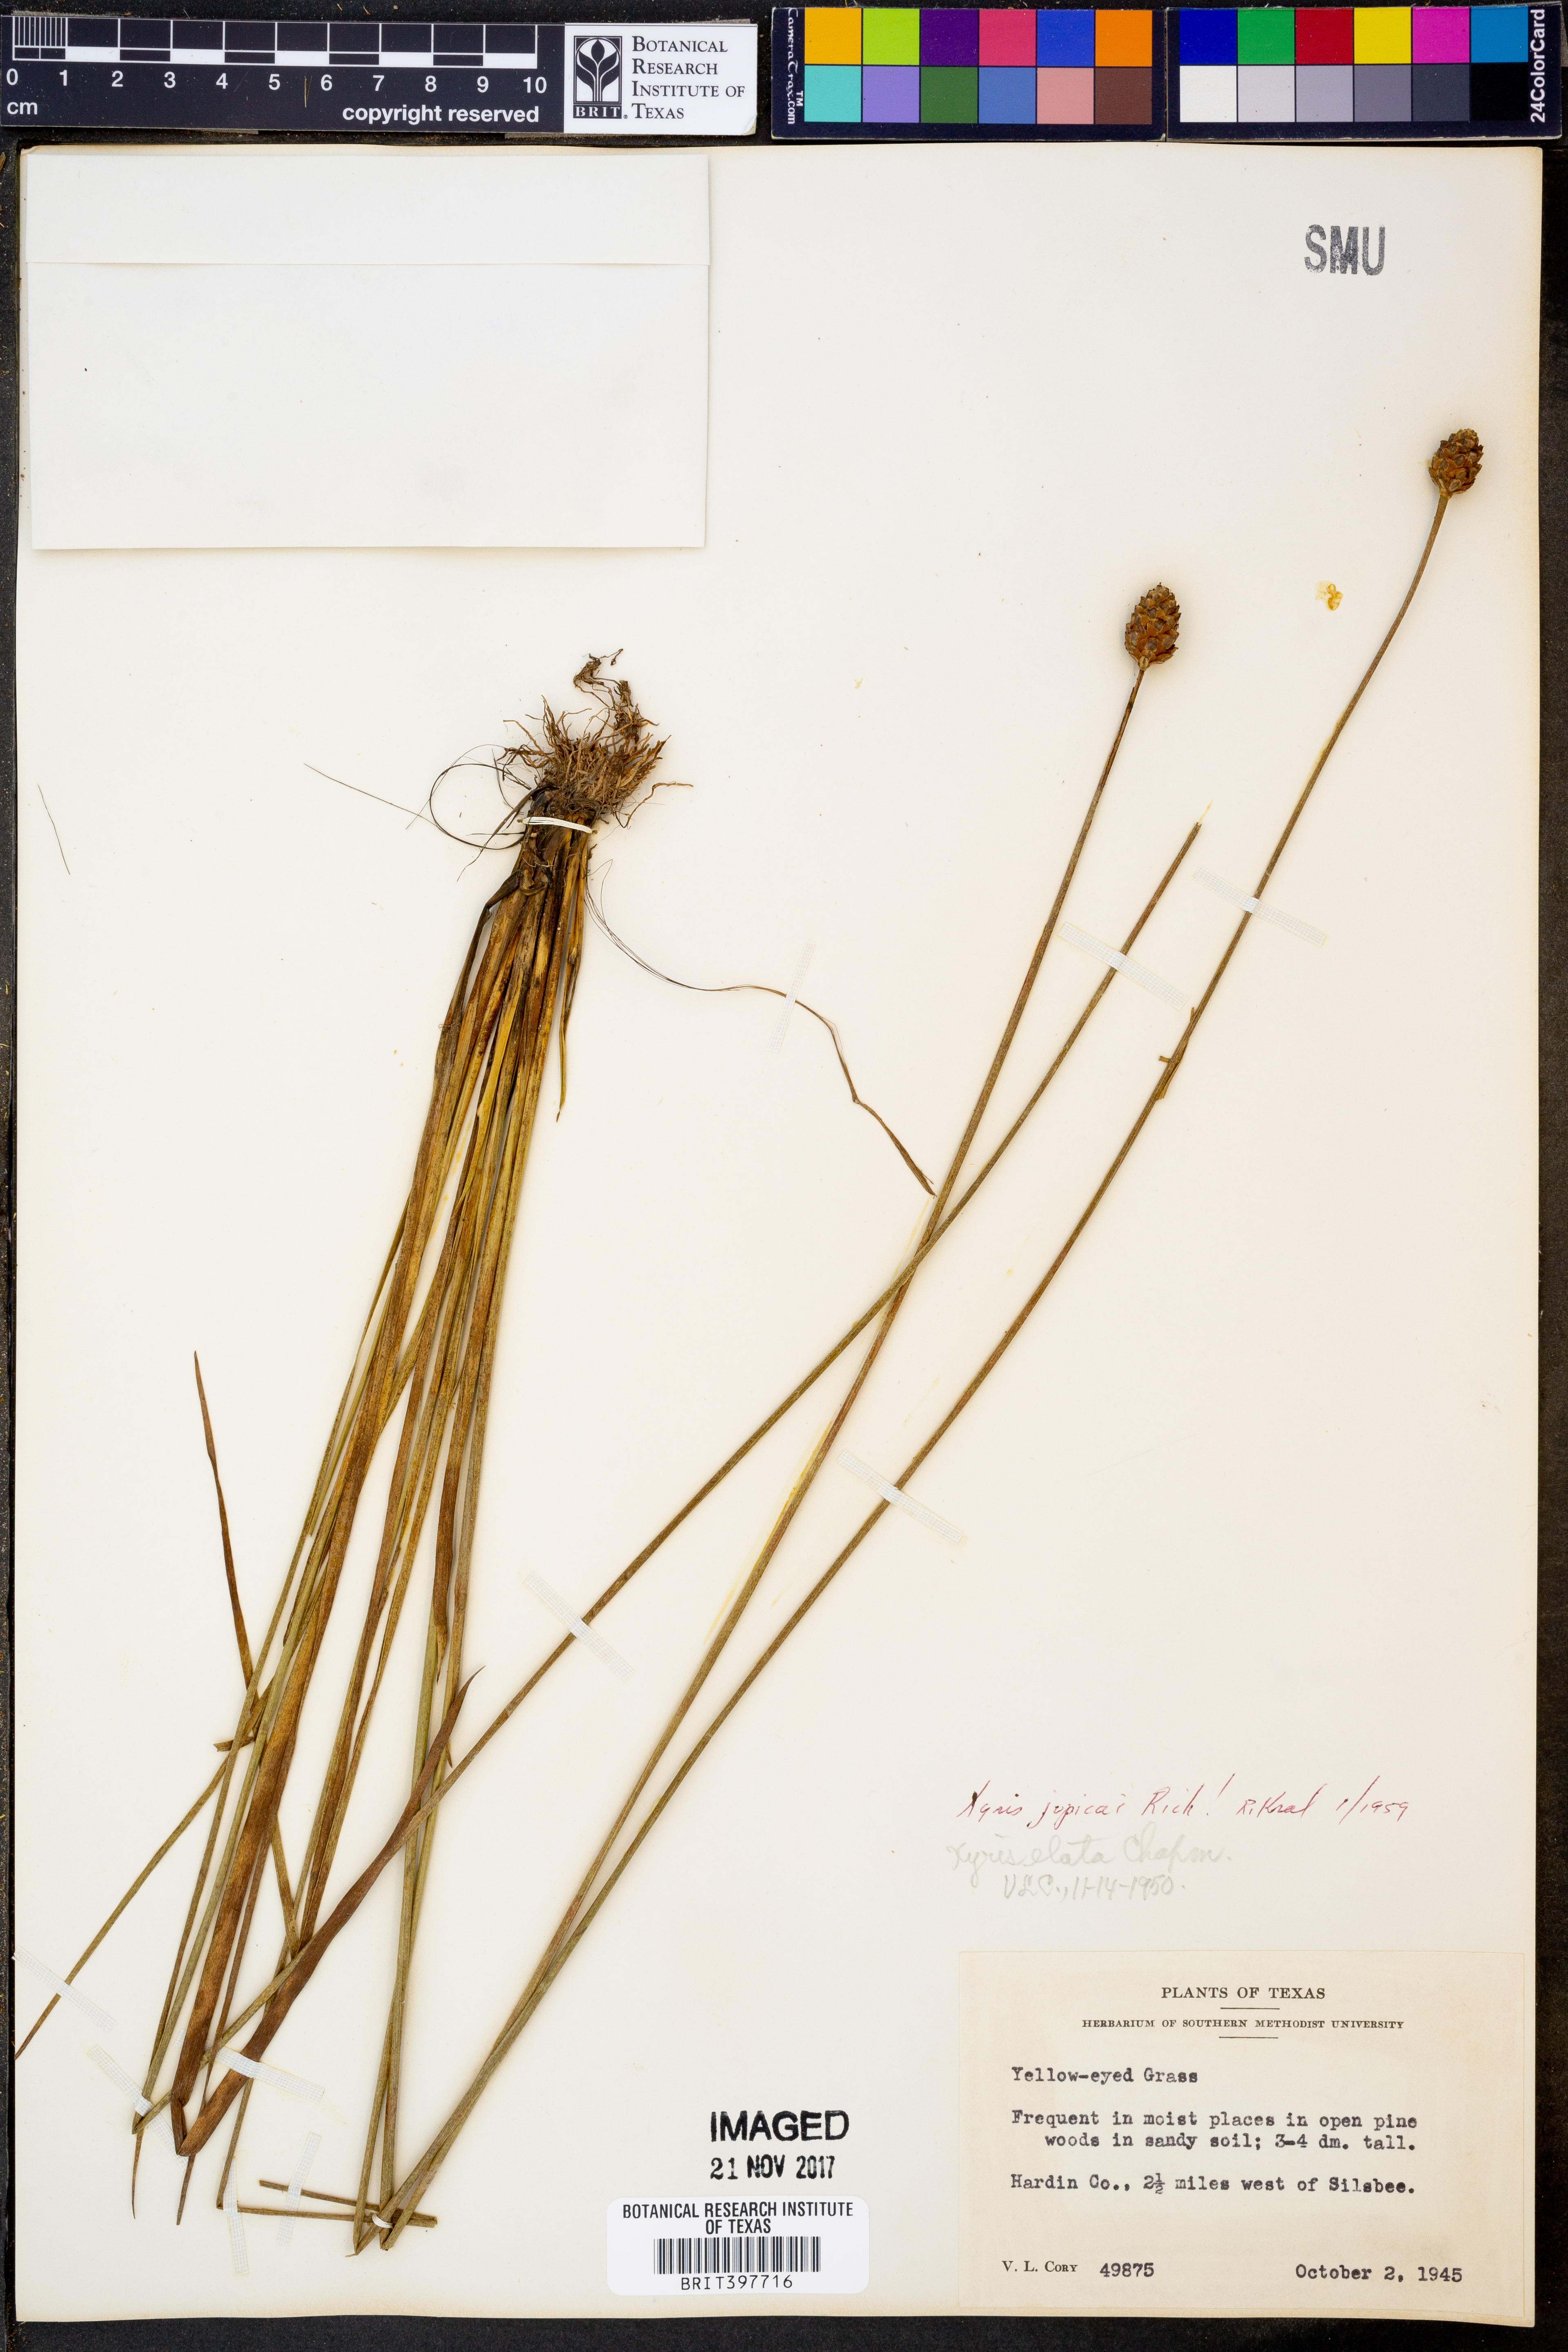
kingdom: Plantae
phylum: Tracheophyta
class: Liliopsida
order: Poales
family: Xyridaceae
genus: Xyris
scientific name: Xyris jupicai
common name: Richard's yelloweyed grass
